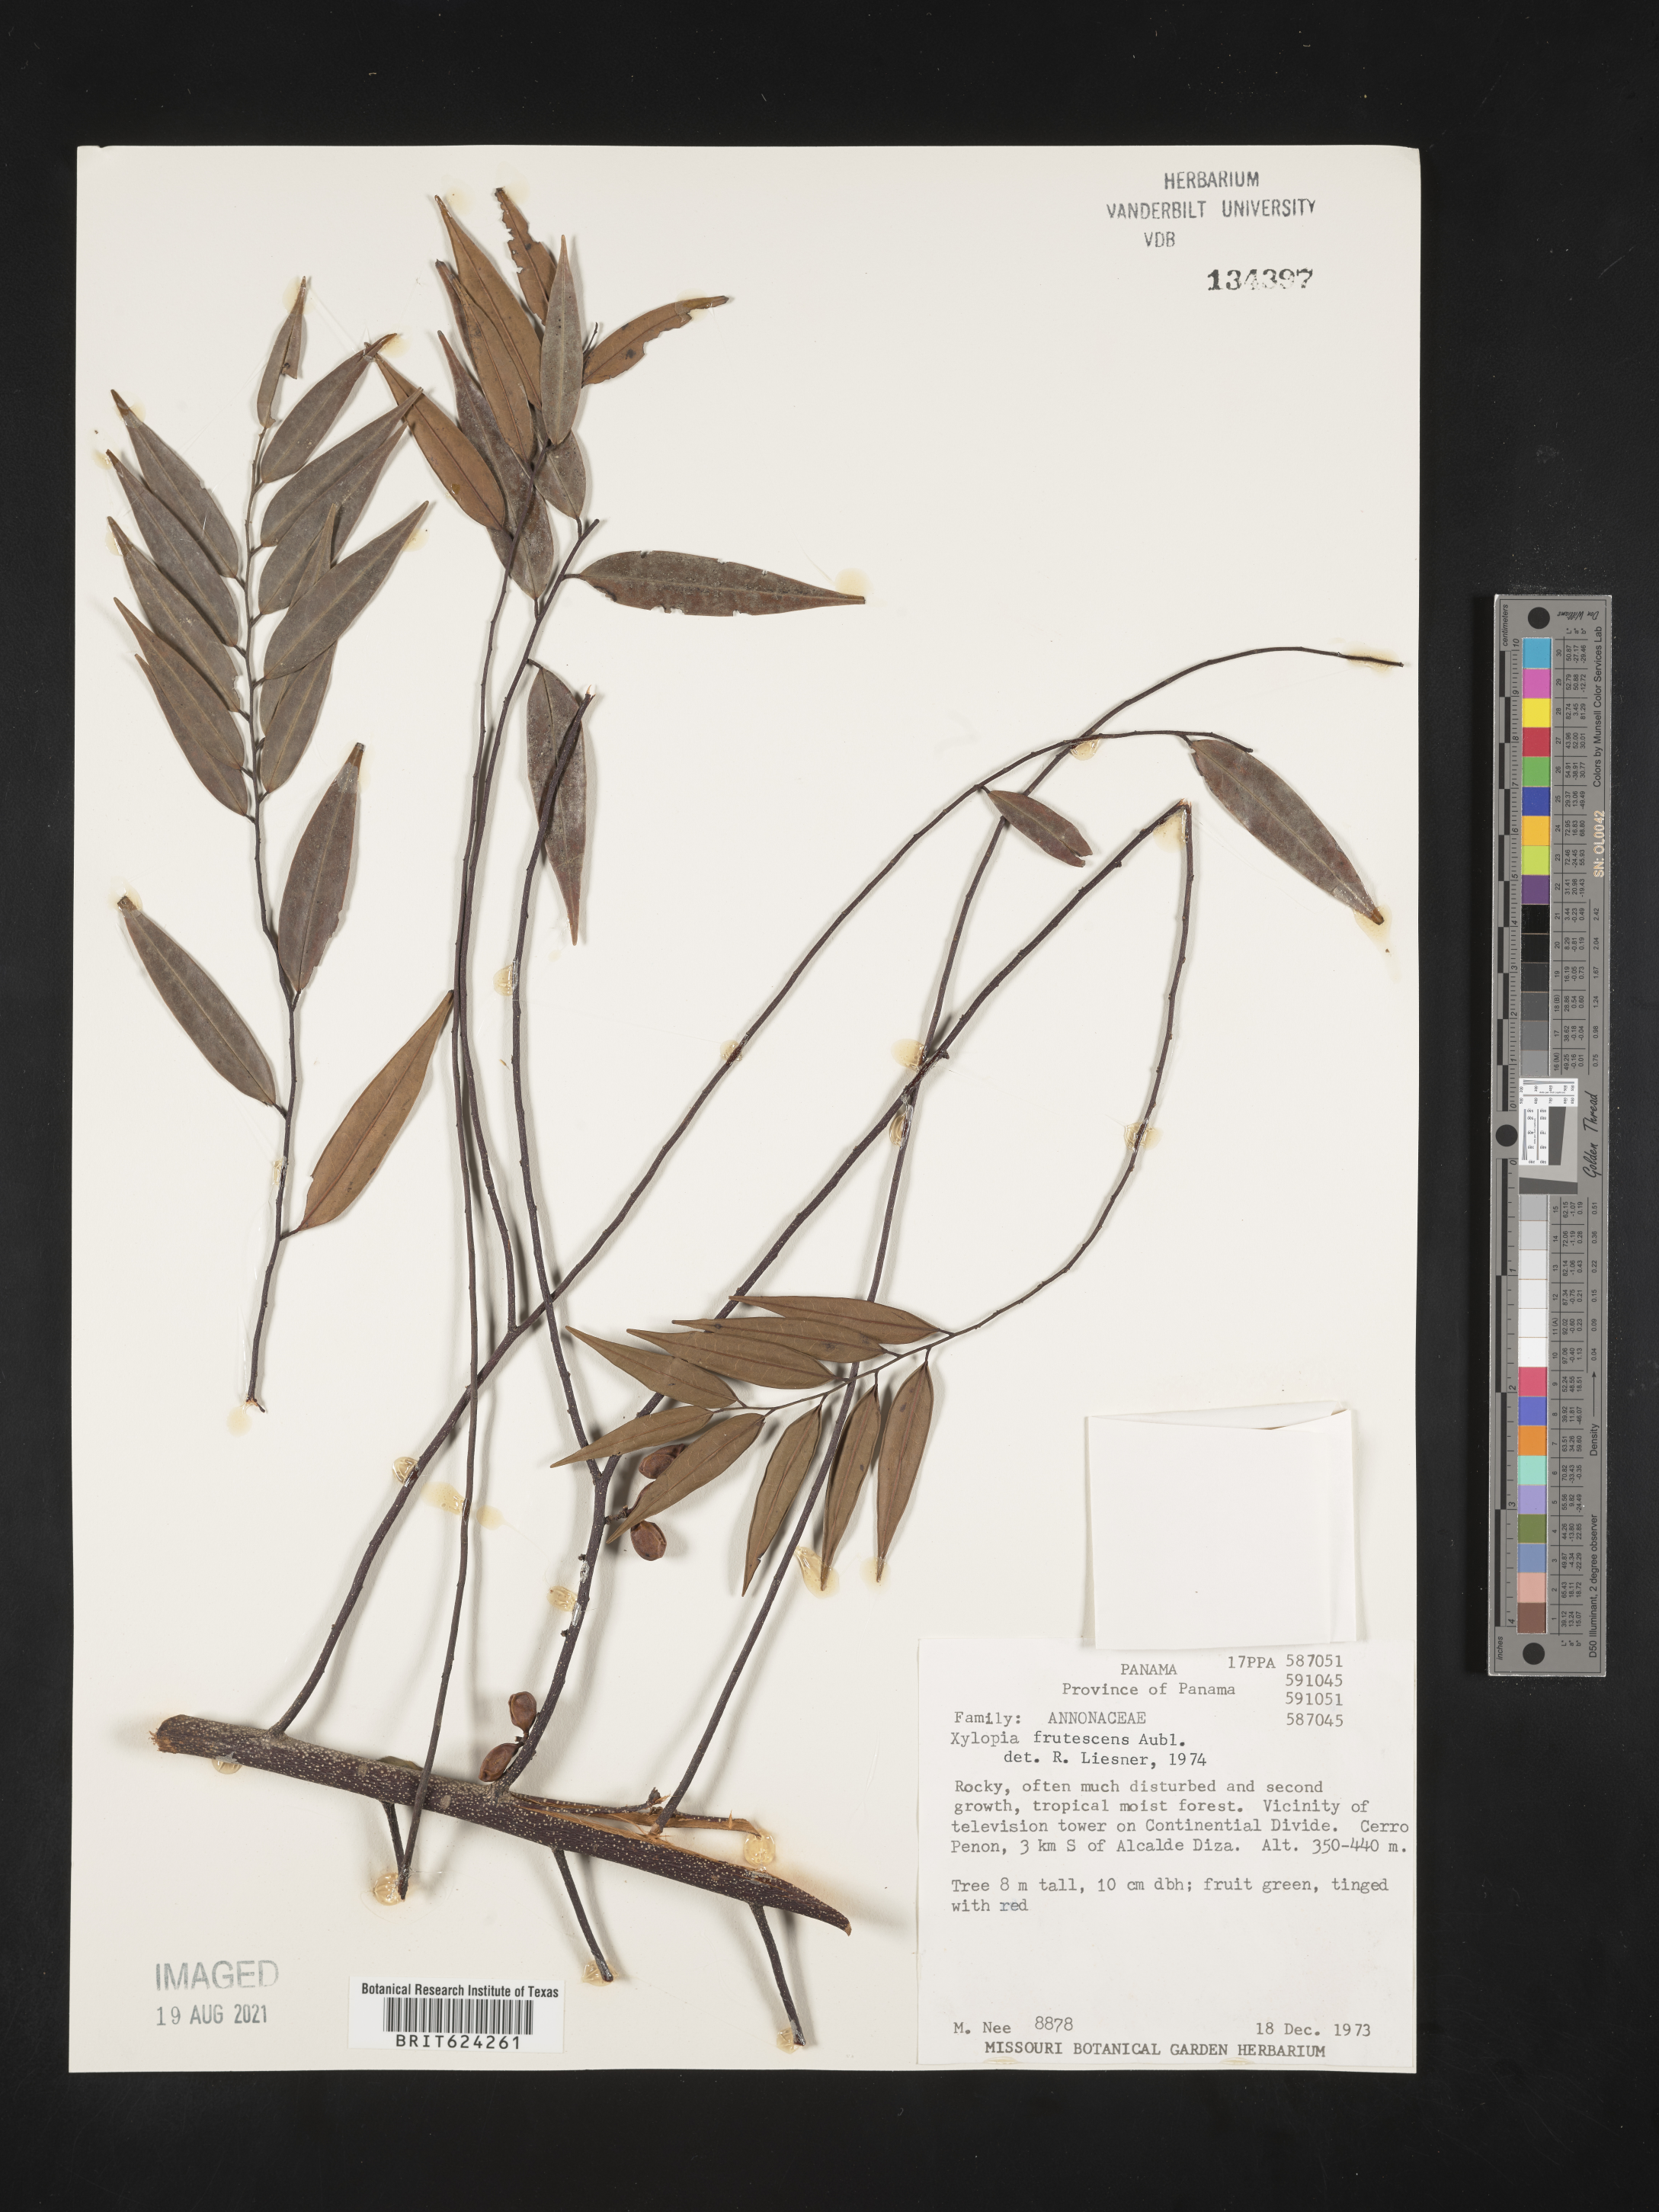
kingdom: Plantae
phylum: Tracheophyta
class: Magnoliopsida
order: Magnoliales
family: Annonaceae
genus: Xylopia
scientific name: Xylopia frutescens
